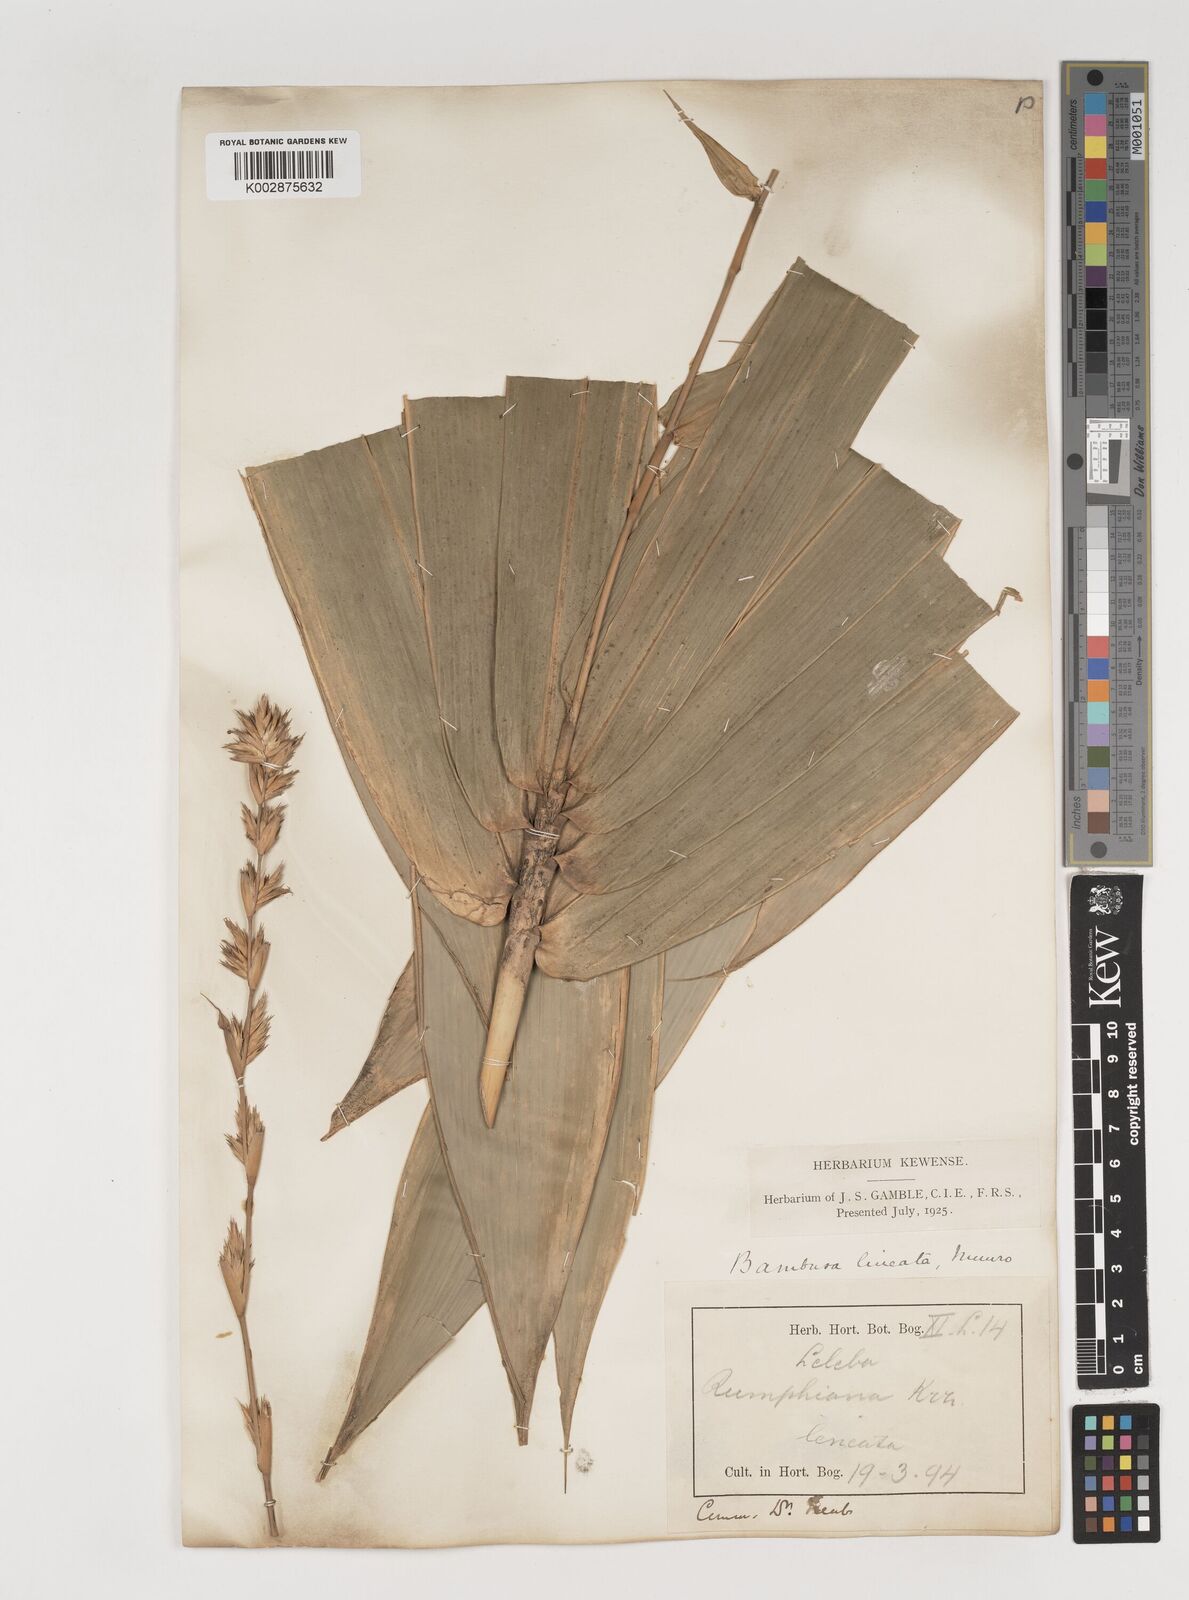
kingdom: Plantae
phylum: Tracheophyta
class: Liliopsida
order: Poales
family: Poaceae
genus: Neololeba
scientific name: Neololeba atra
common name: Cape bamboo
